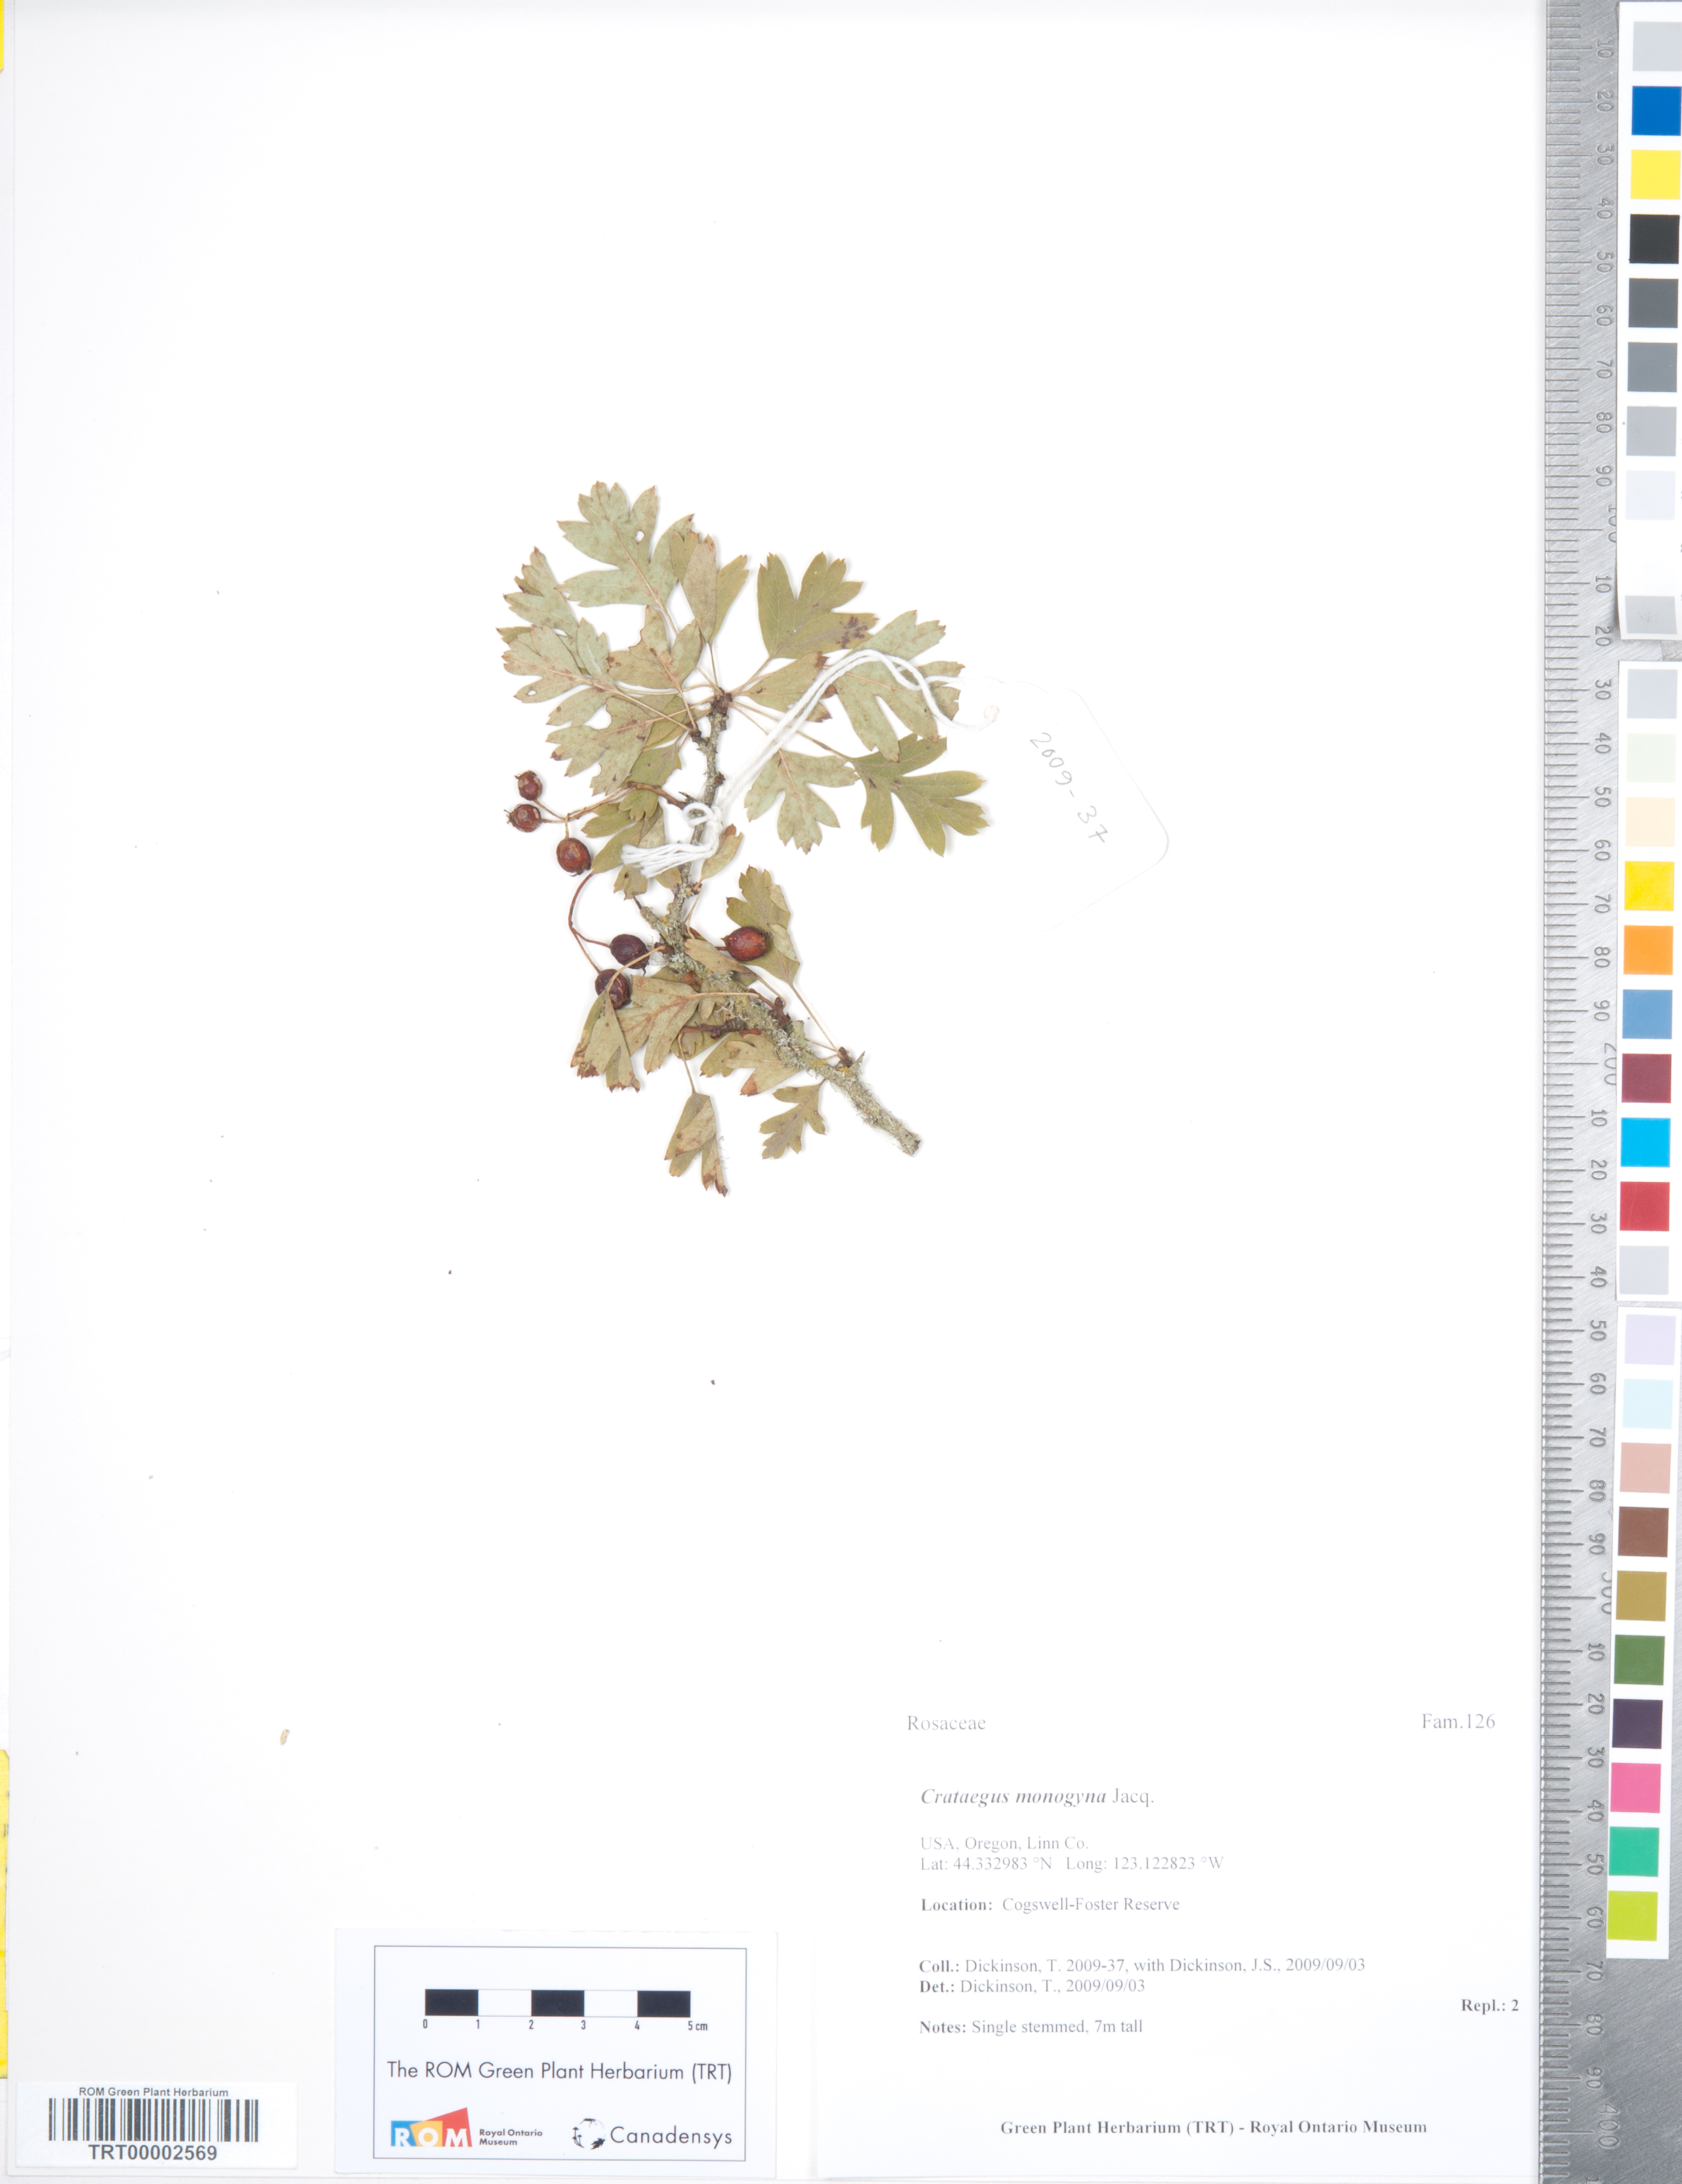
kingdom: Plantae
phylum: Tracheophyta
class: Magnoliopsida
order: Rosales
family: Rosaceae
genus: Crataegus
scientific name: Crataegus monogyna
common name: Hawthorn
